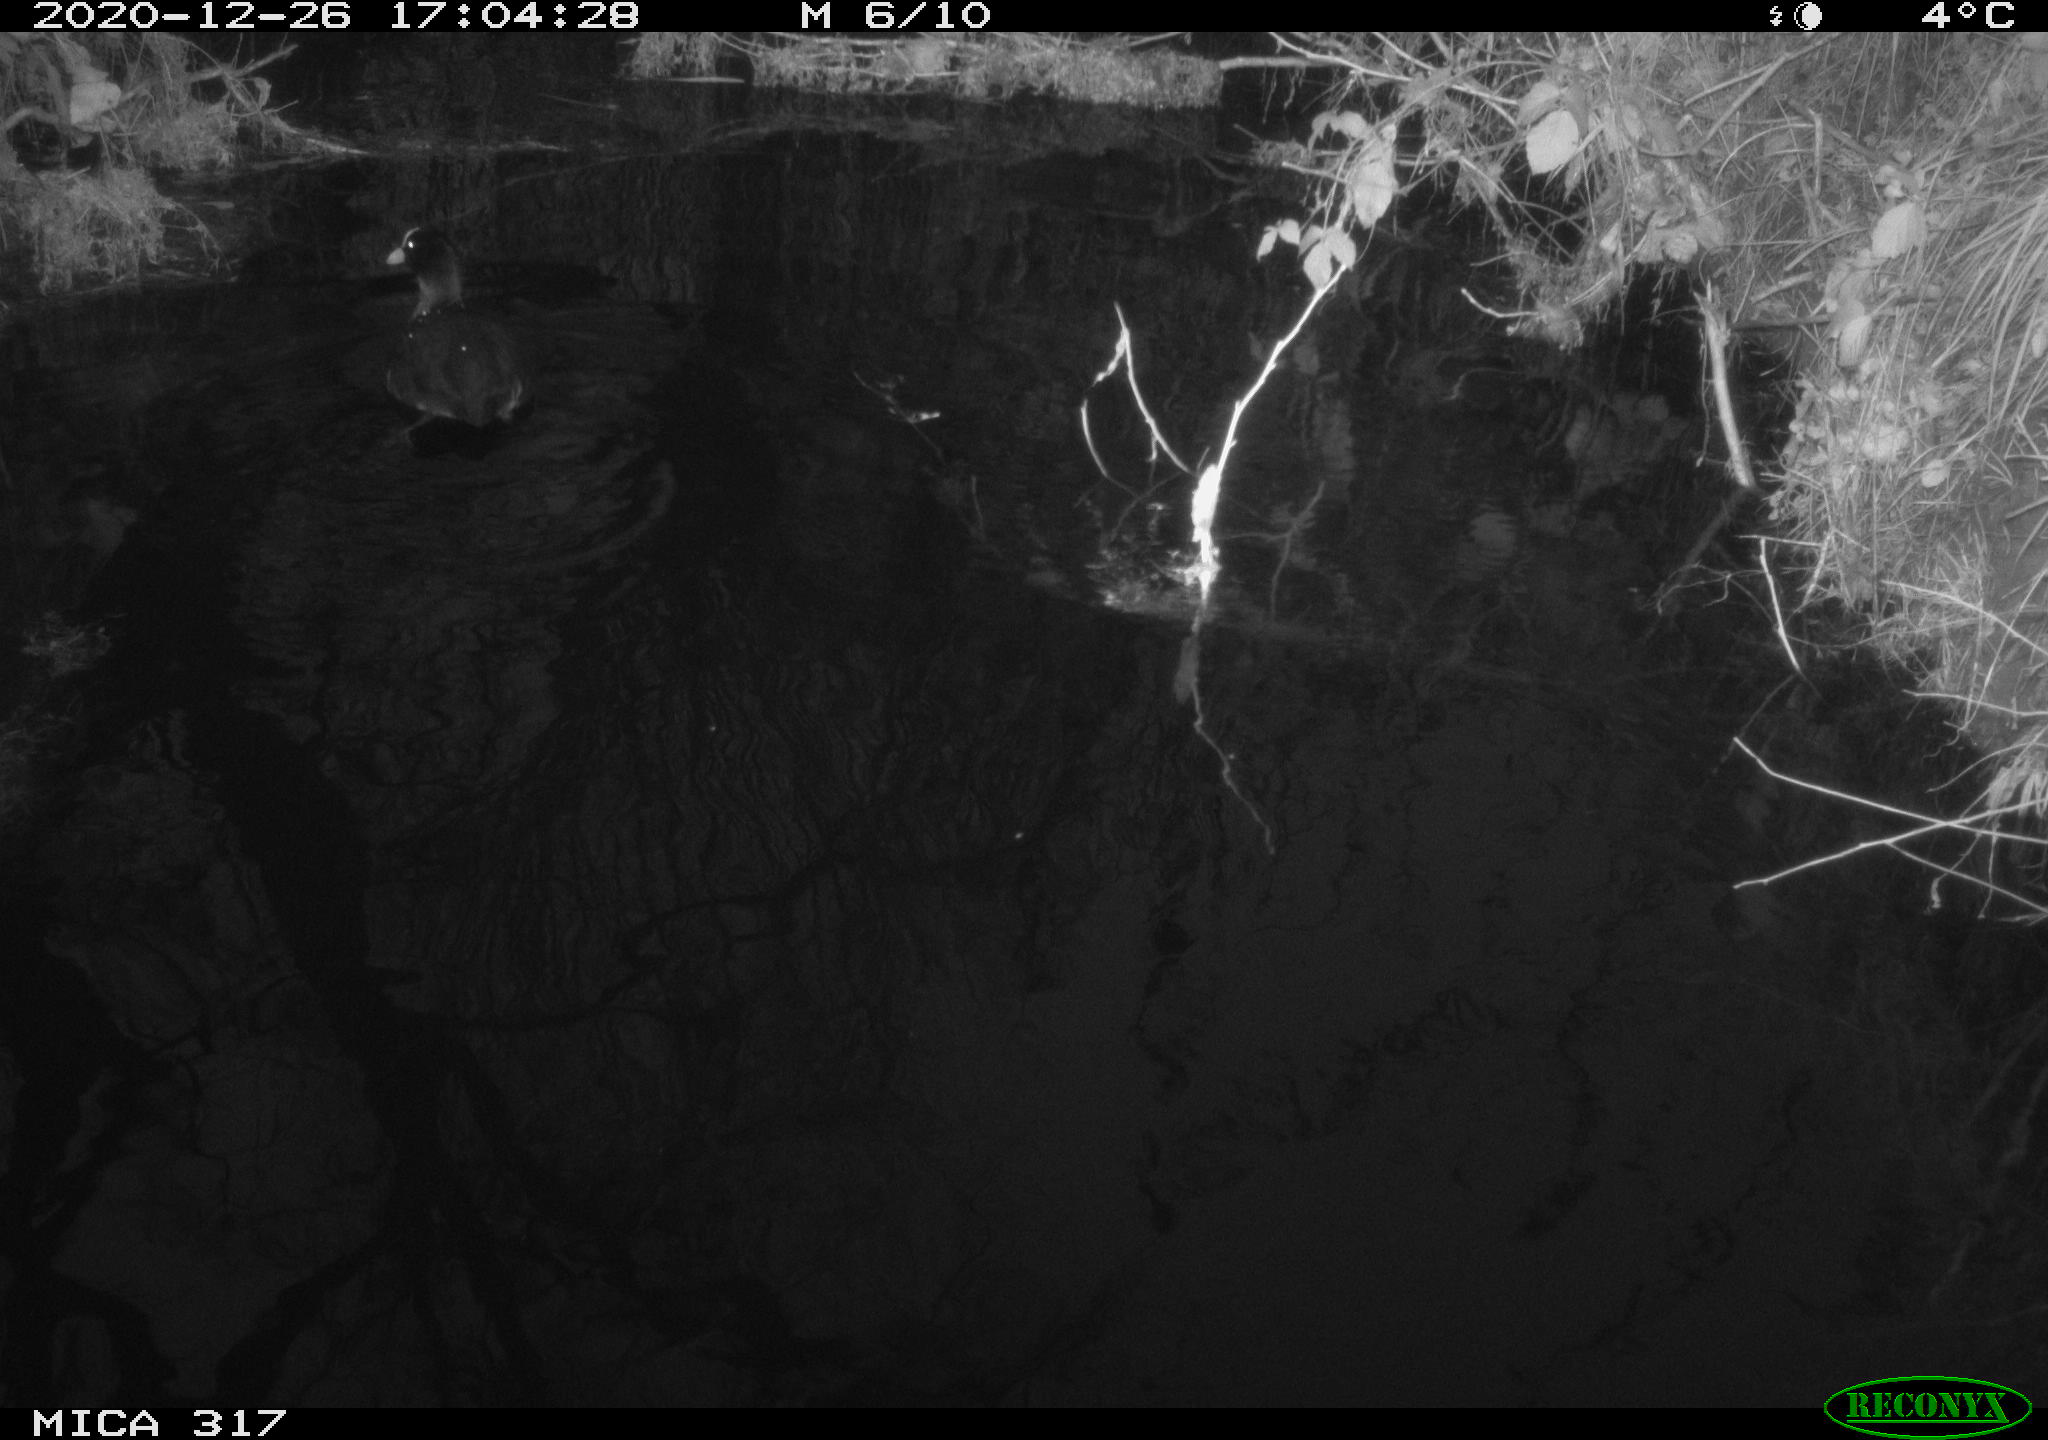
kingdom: Animalia
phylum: Chordata
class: Aves
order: Gruiformes
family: Rallidae
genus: Fulica
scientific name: Fulica atra
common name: Eurasian coot
